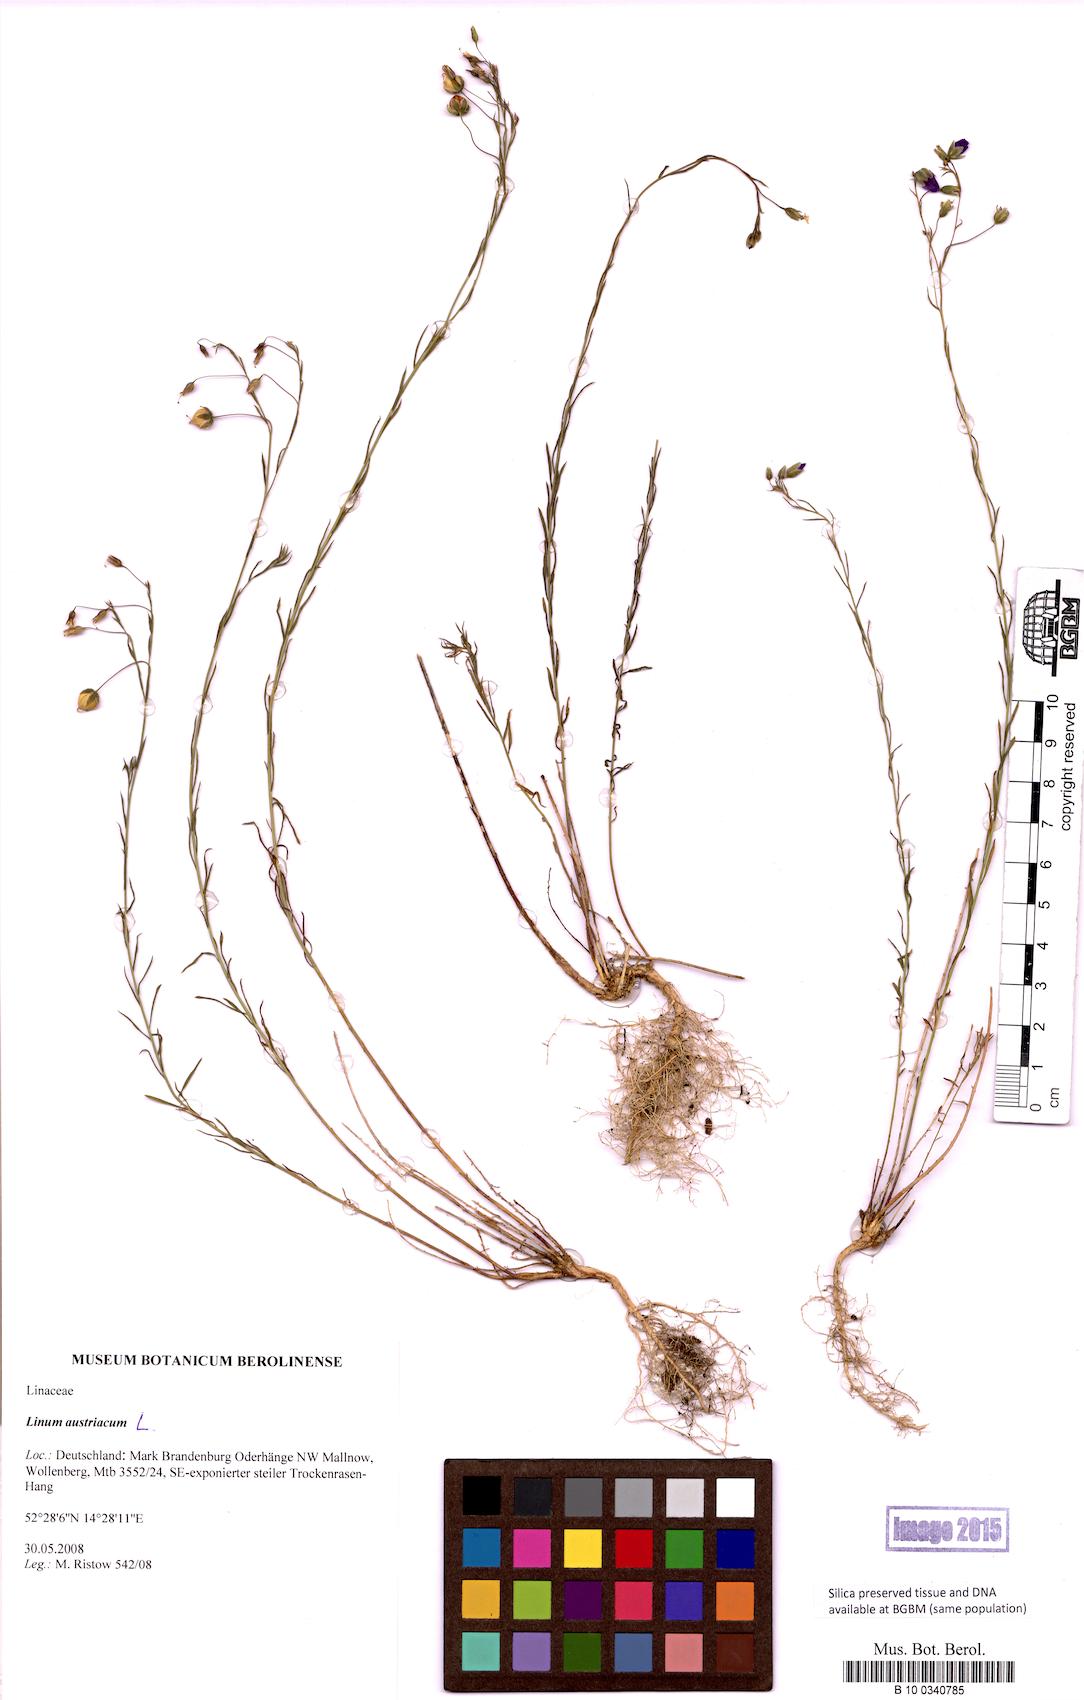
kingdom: Plantae
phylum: Tracheophyta
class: Magnoliopsida
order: Malpighiales
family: Linaceae
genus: Linum
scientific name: Linum austriacum
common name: Austrian flax
